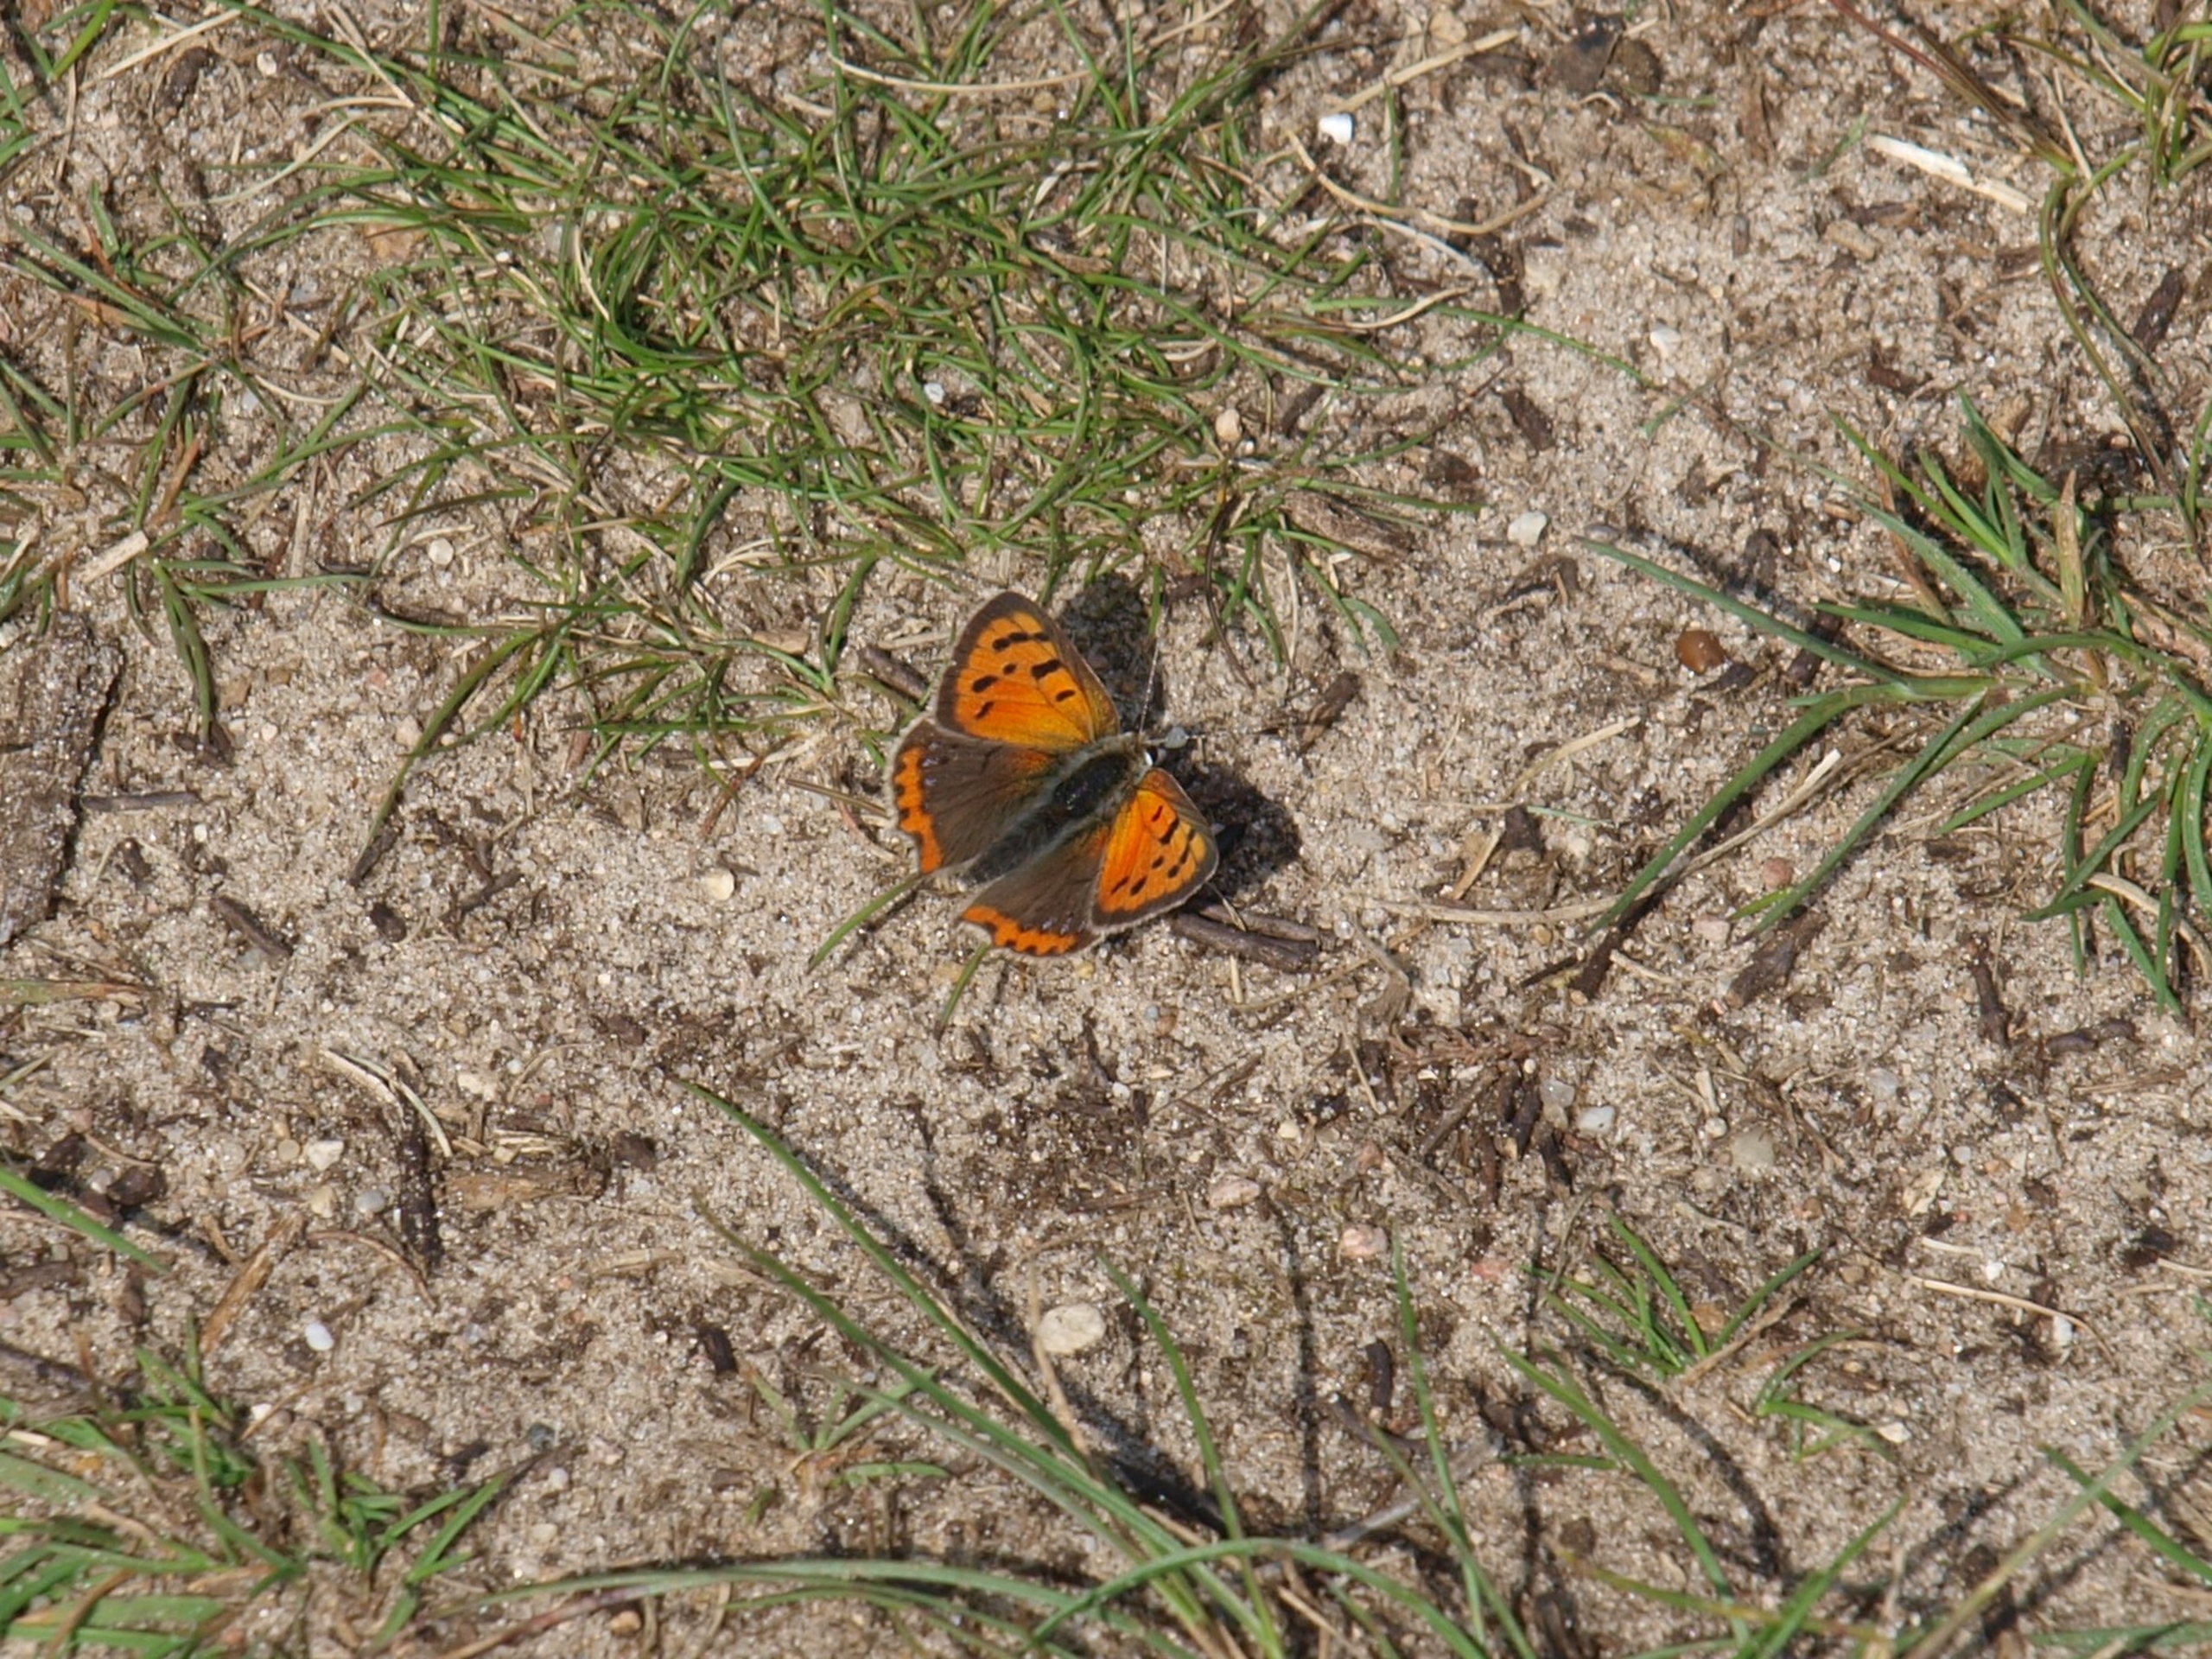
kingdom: Animalia
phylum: Arthropoda
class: Insecta
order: Lepidoptera
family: Lycaenidae
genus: Lycaena
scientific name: Lycaena phlaeas
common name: Lille ildfugl
